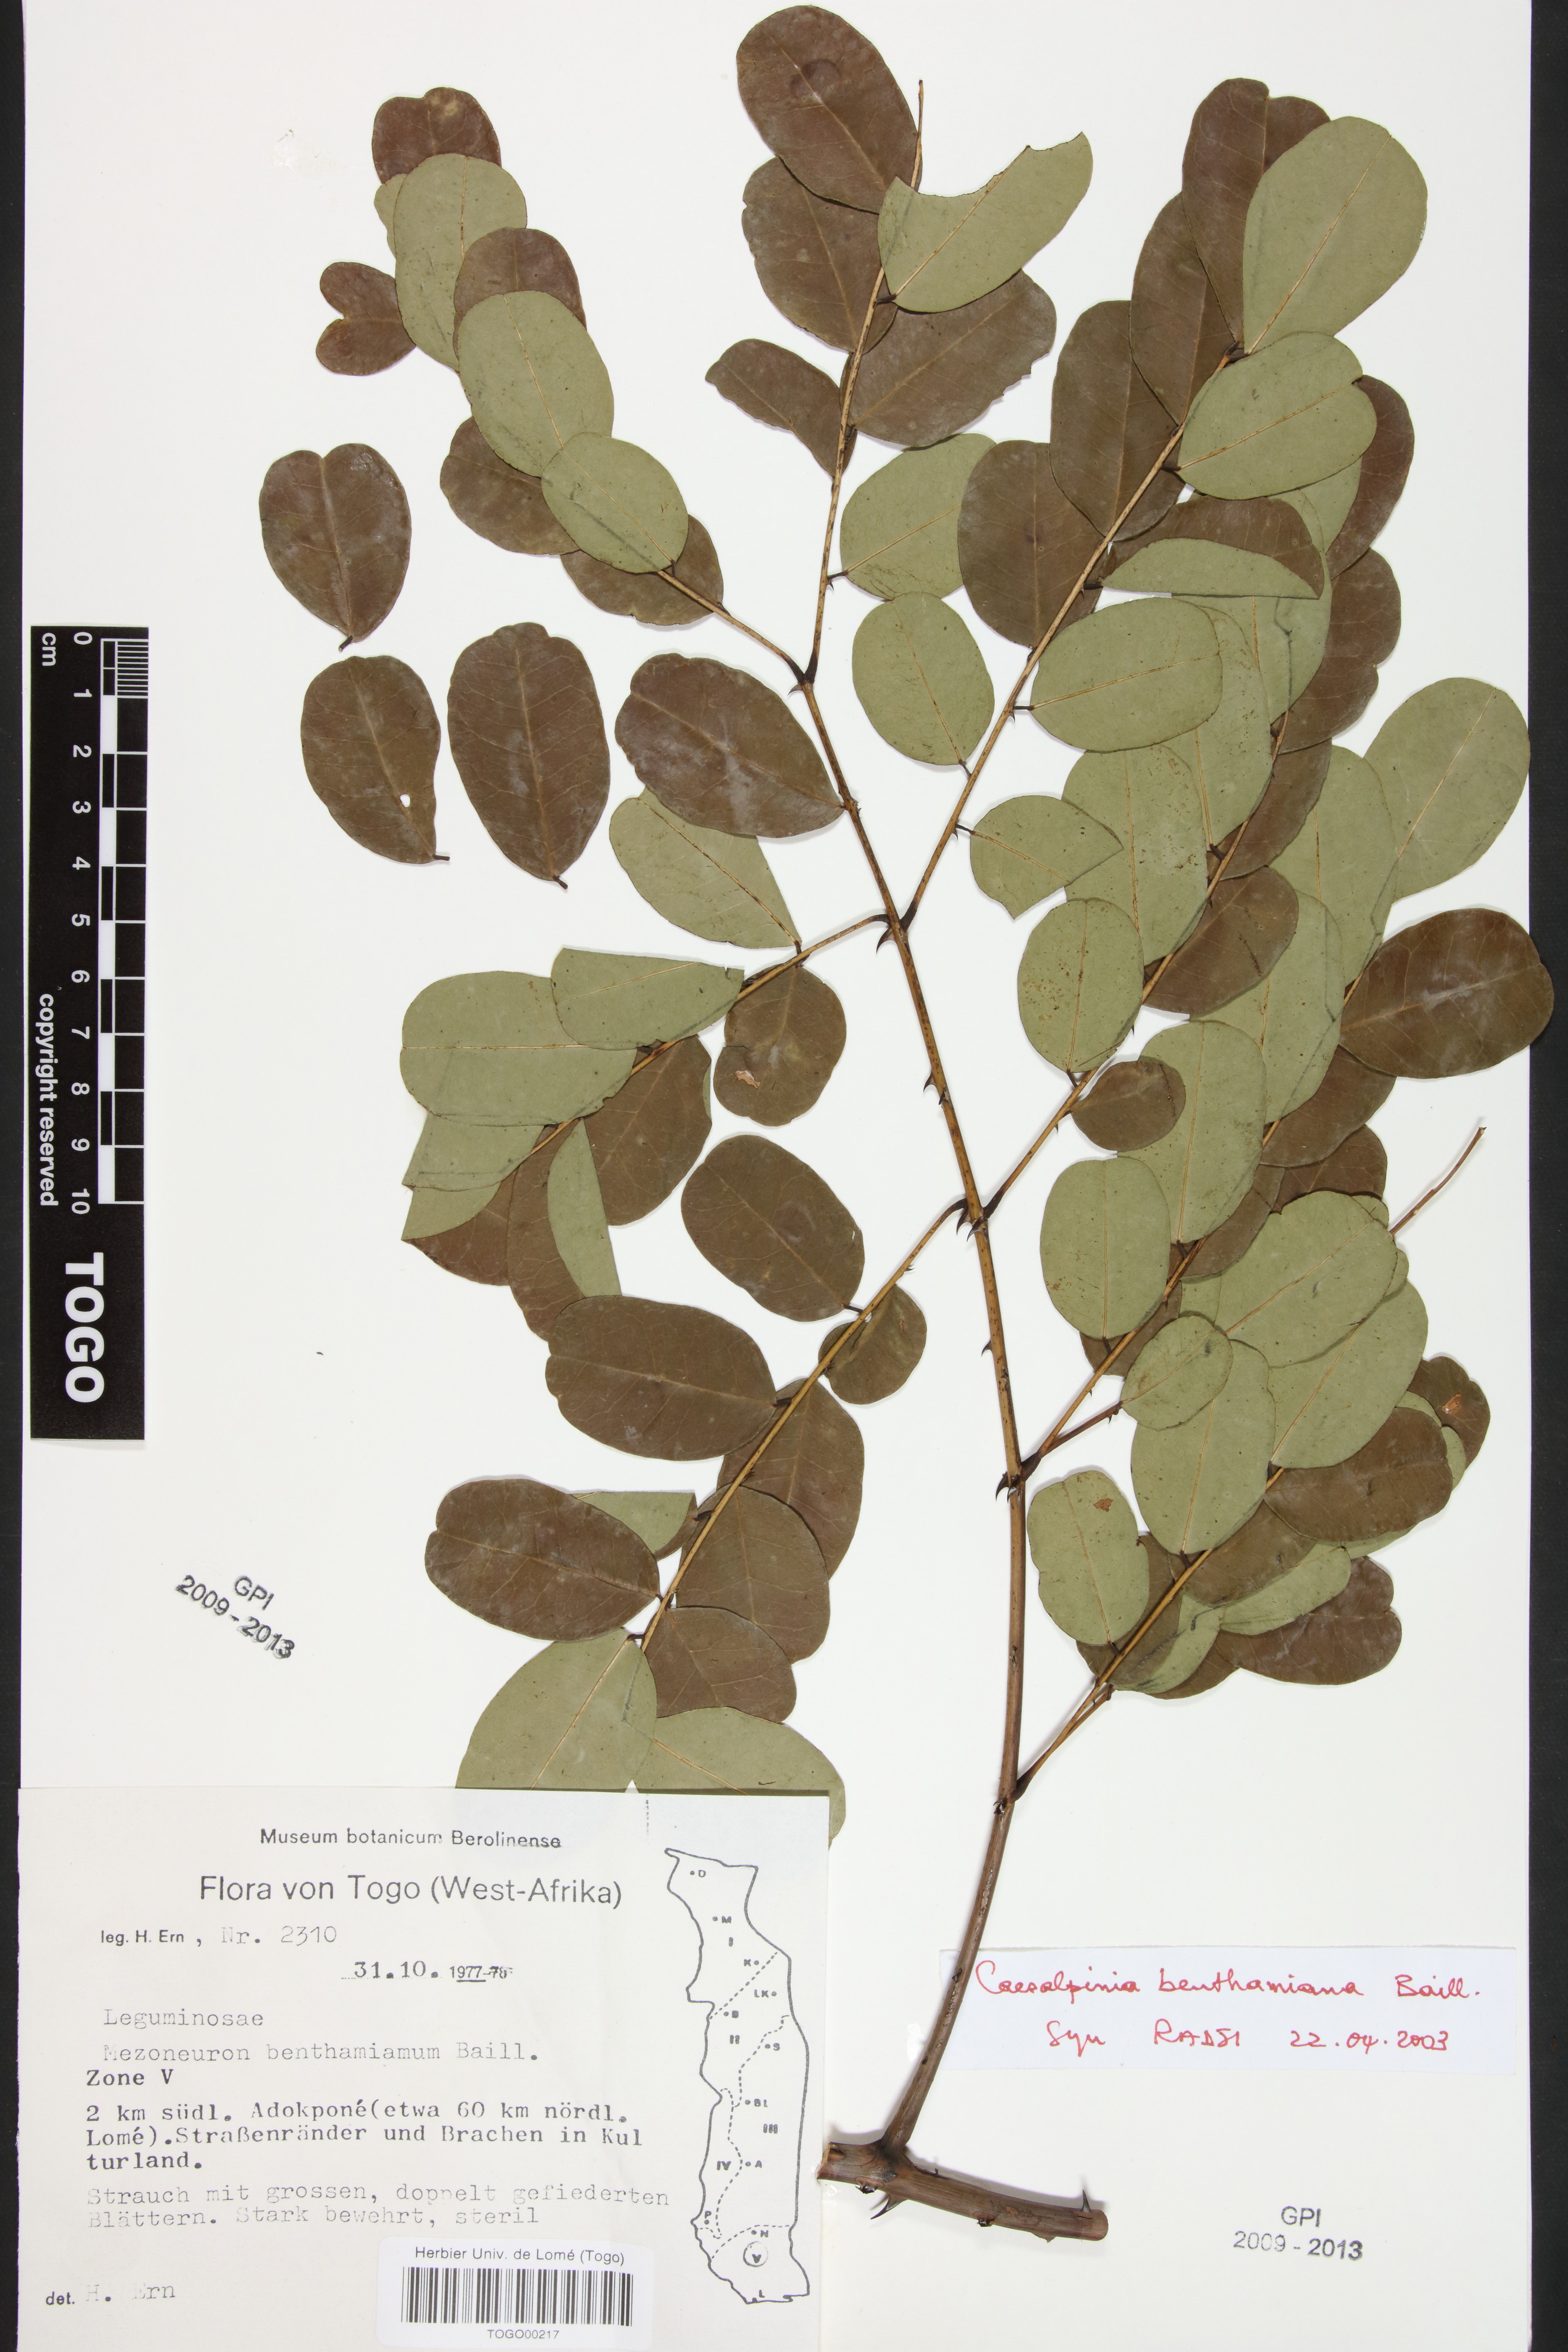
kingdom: Plantae
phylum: Tracheophyta
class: Magnoliopsida
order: Fabales
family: Fabaceae
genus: Mezoneuron
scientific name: Mezoneuron benthamianum
